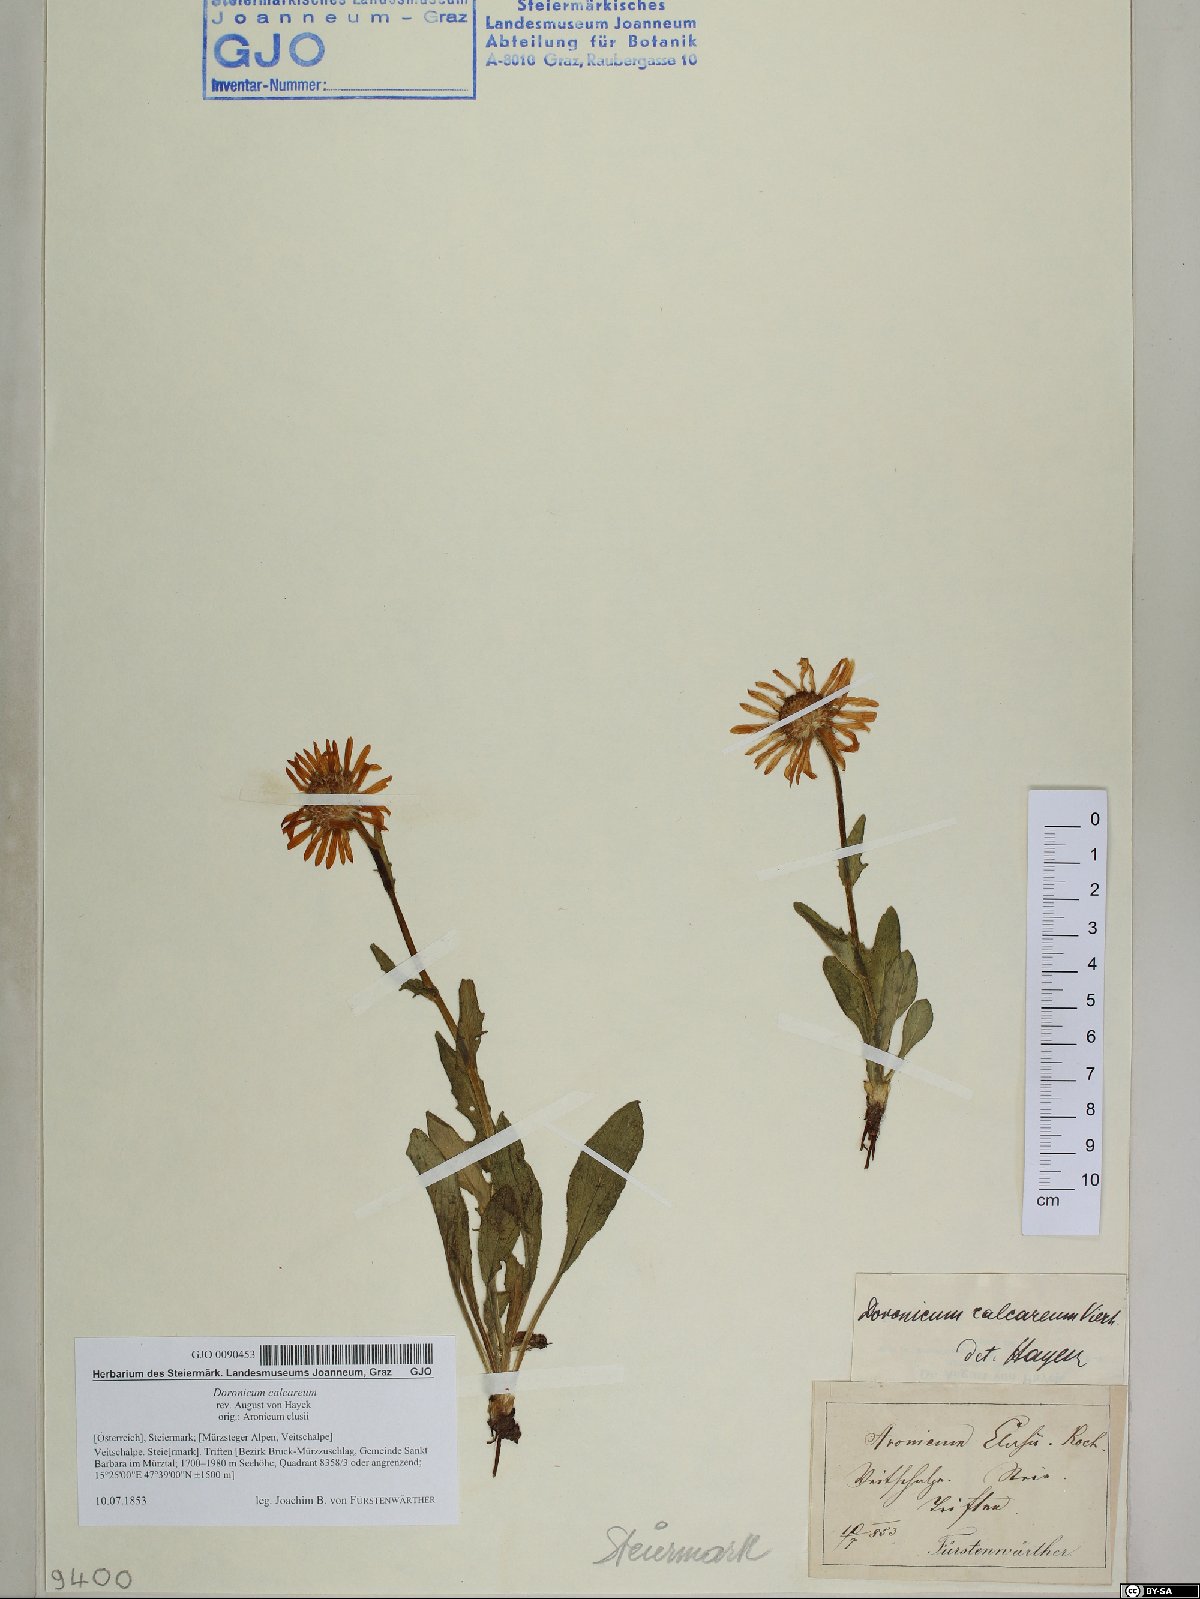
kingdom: Plantae
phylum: Tracheophyta
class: Magnoliopsida
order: Asterales
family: Asteraceae
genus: Doronicum
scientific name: Doronicum glaciale
